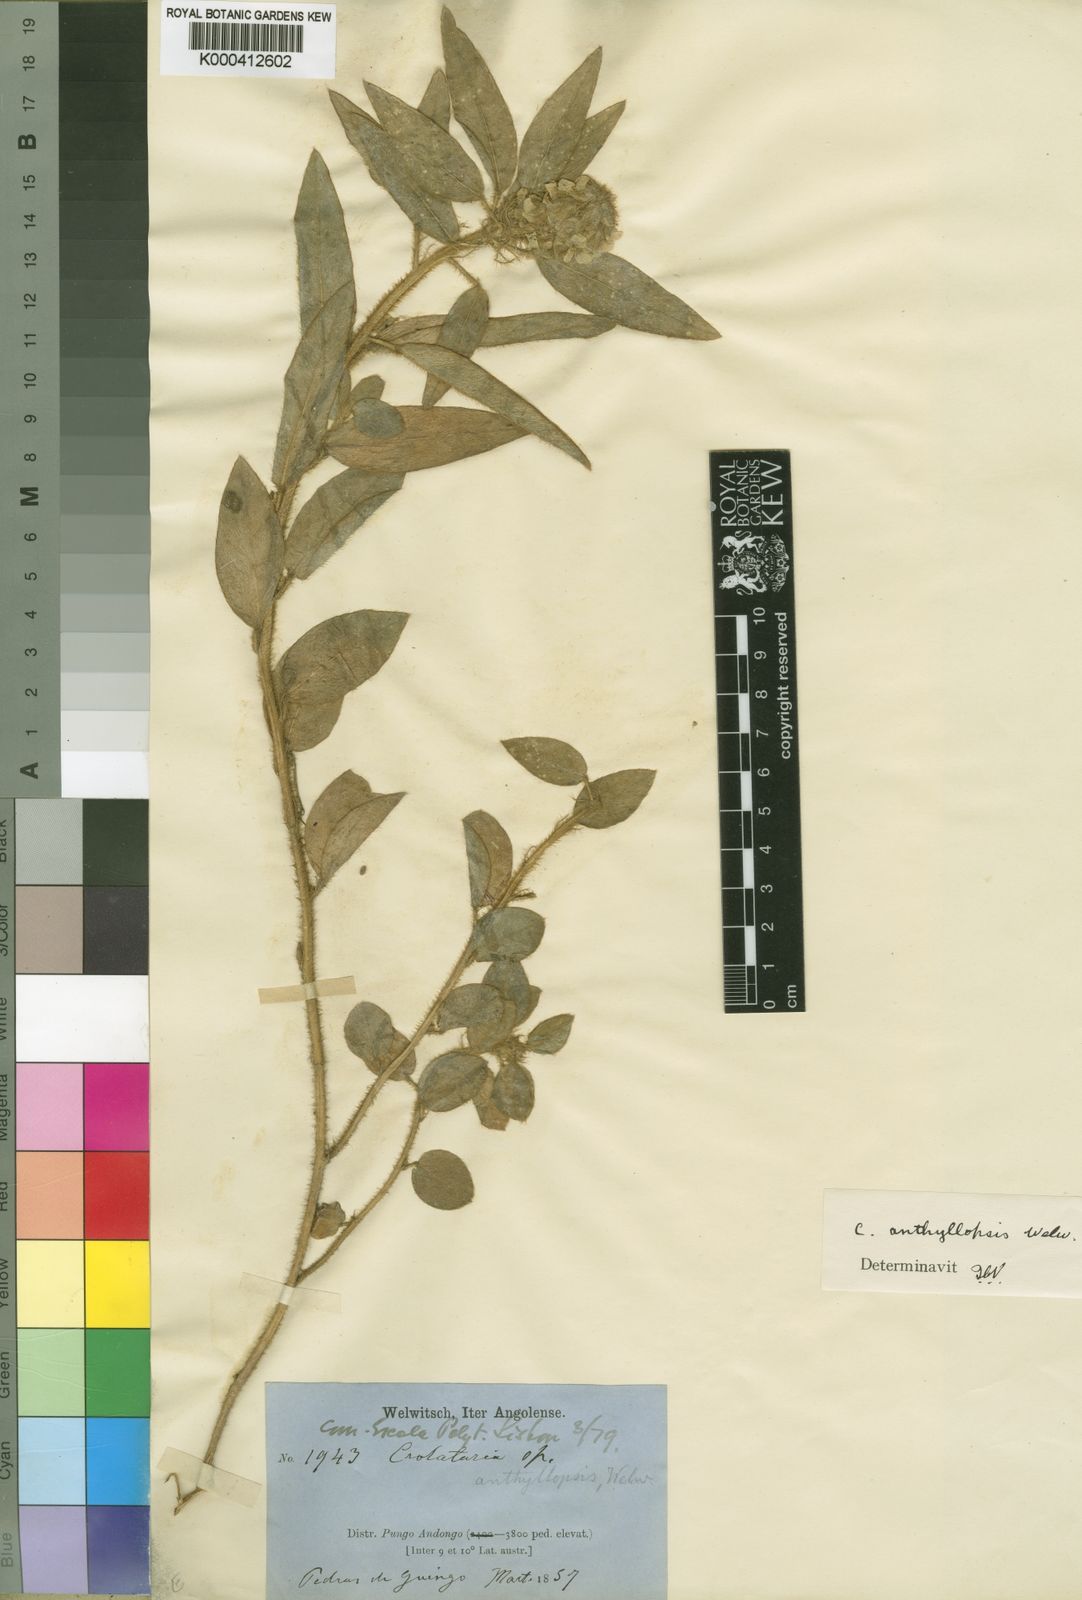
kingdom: Plantae
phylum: Tracheophyta
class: Magnoliopsida
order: Fabales
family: Fabaceae
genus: Crotalaria
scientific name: Crotalaria anthyllopsis
